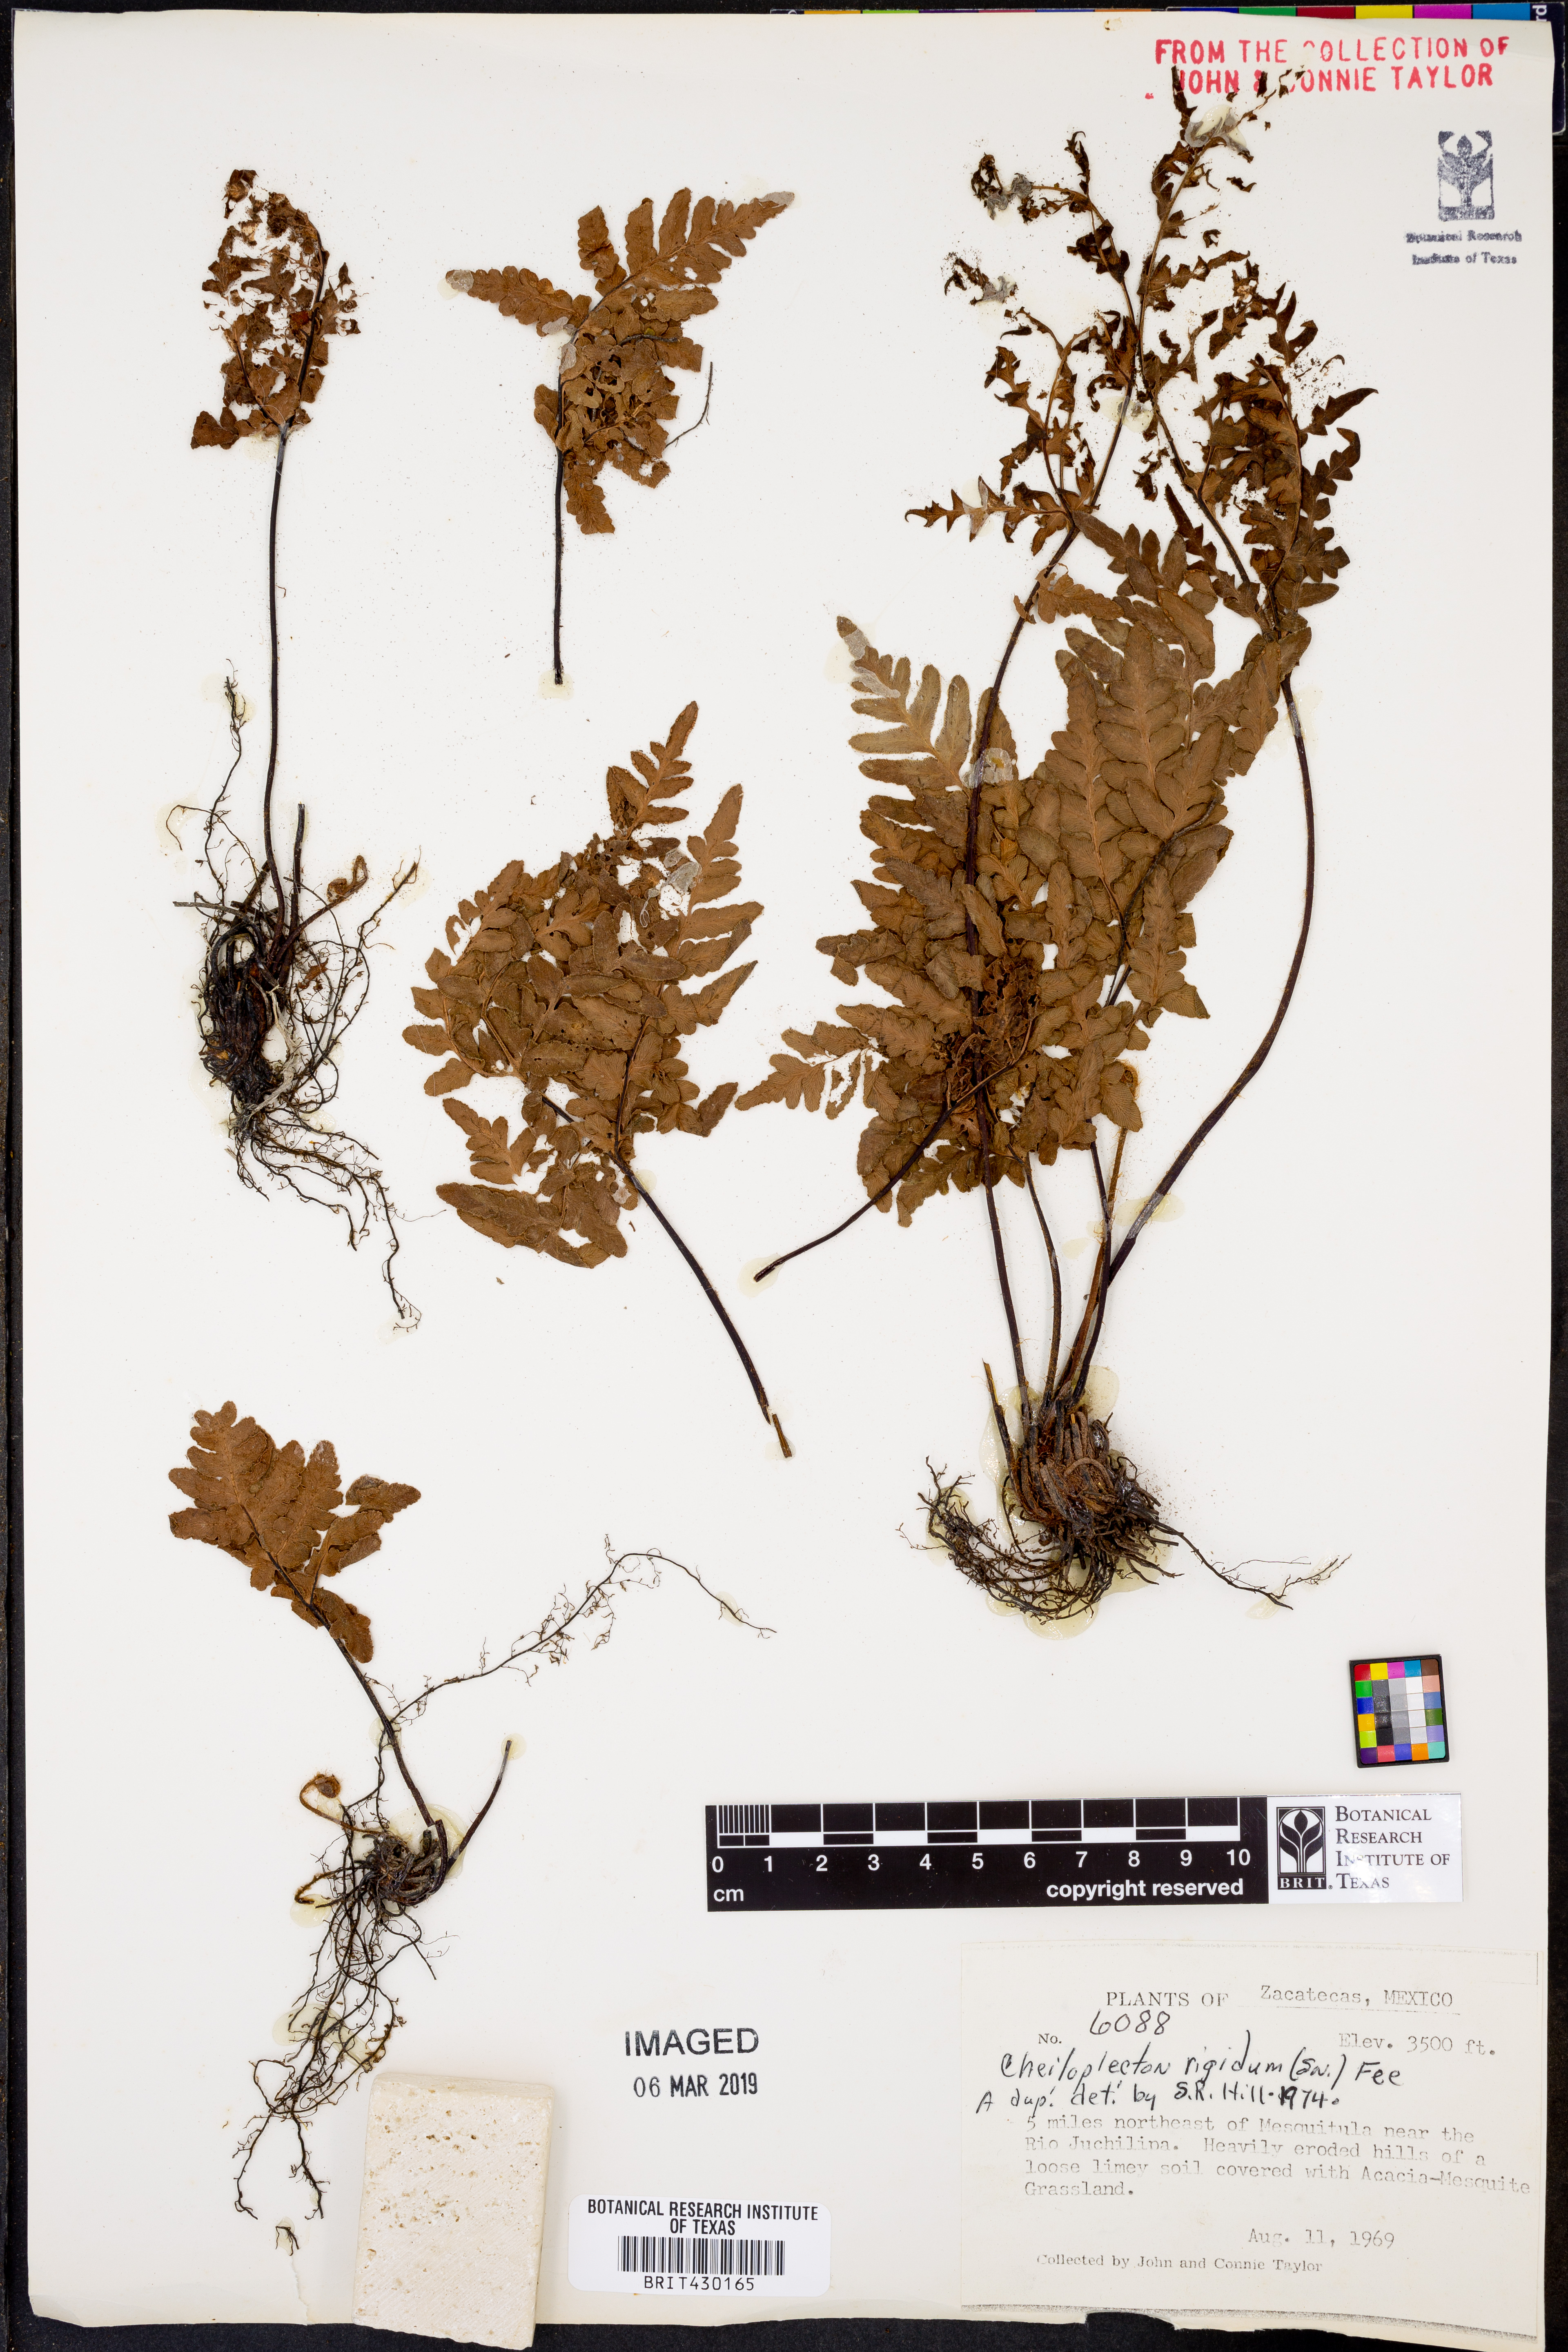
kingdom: Plantae
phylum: Tracheophyta
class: Polypodiopsida
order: Polypodiales
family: Pteridaceae
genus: Cheiloplecton
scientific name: Cheiloplecton rigidum
